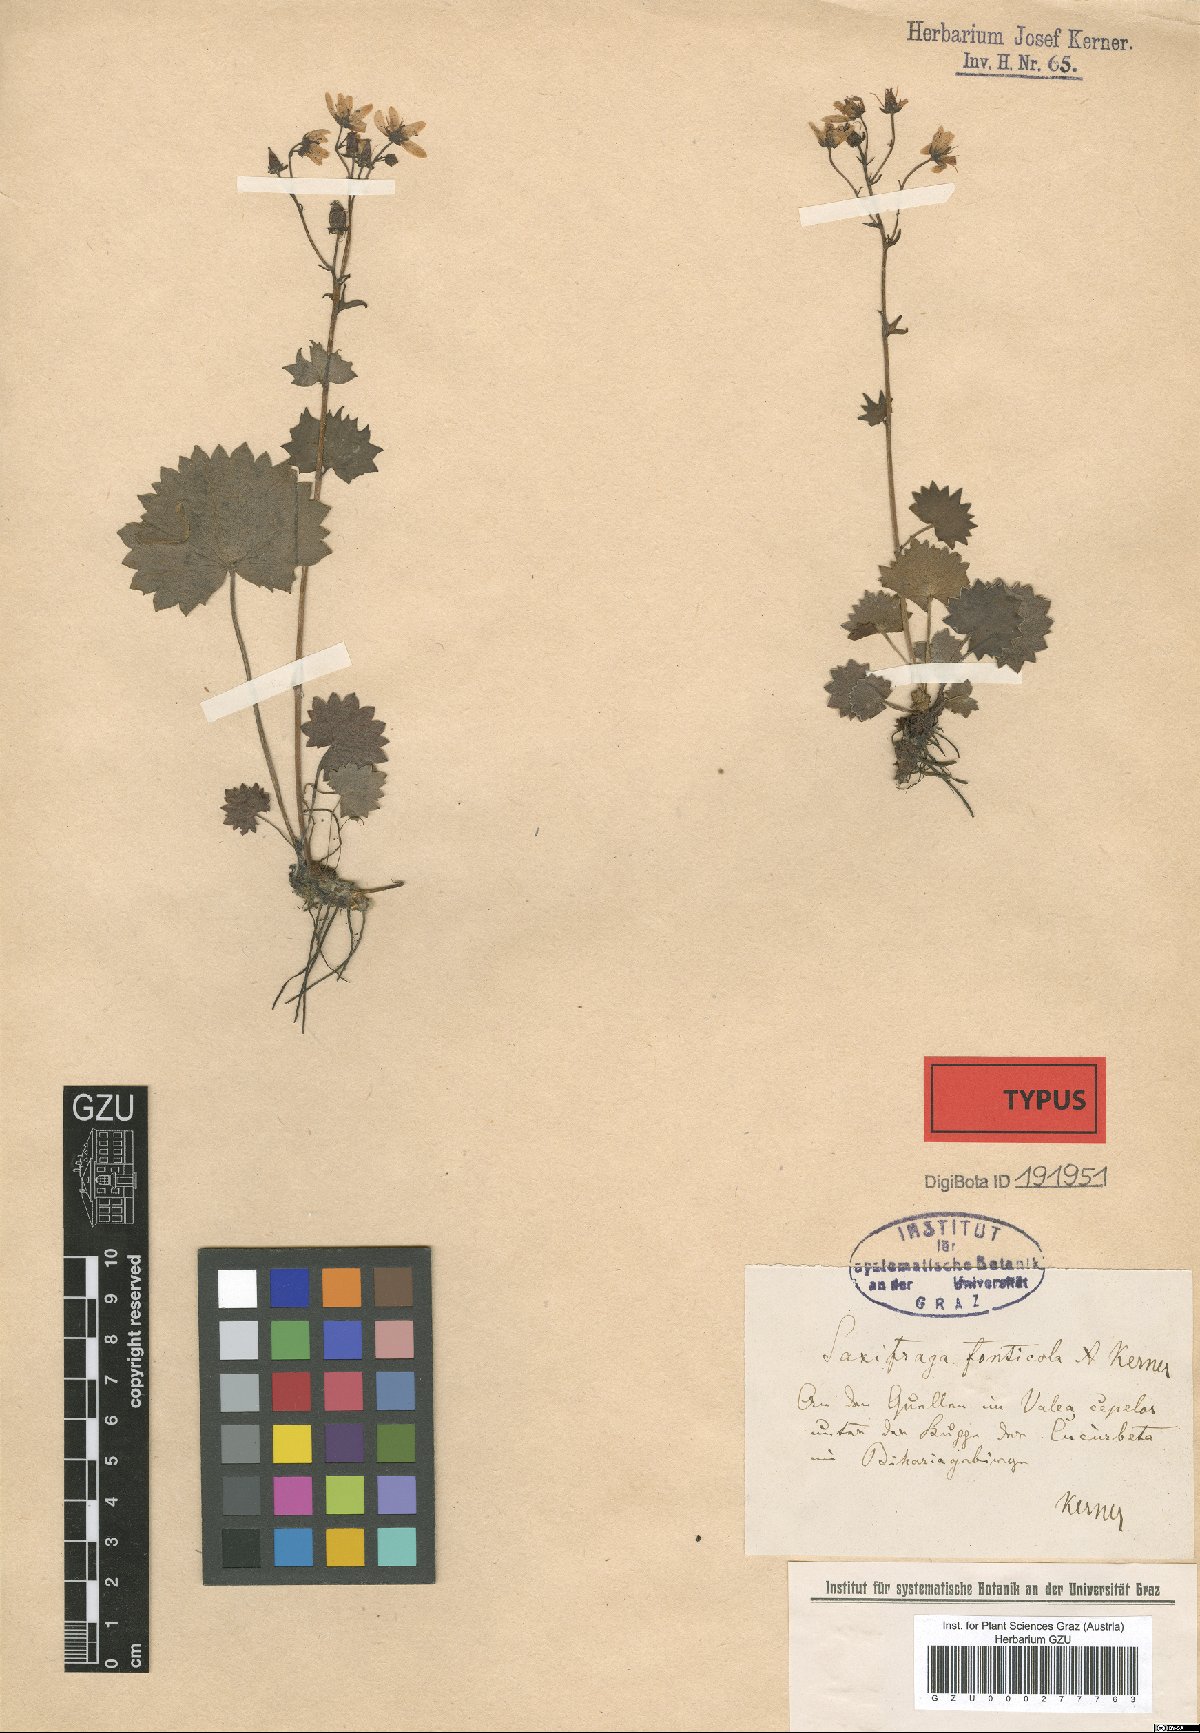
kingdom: Plantae
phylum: Tracheophyta
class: Magnoliopsida
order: Saxifragales
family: Saxifragaceae
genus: Saxifraga
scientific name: Saxifraga rotundifolia
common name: Round-leaved saxifrage
